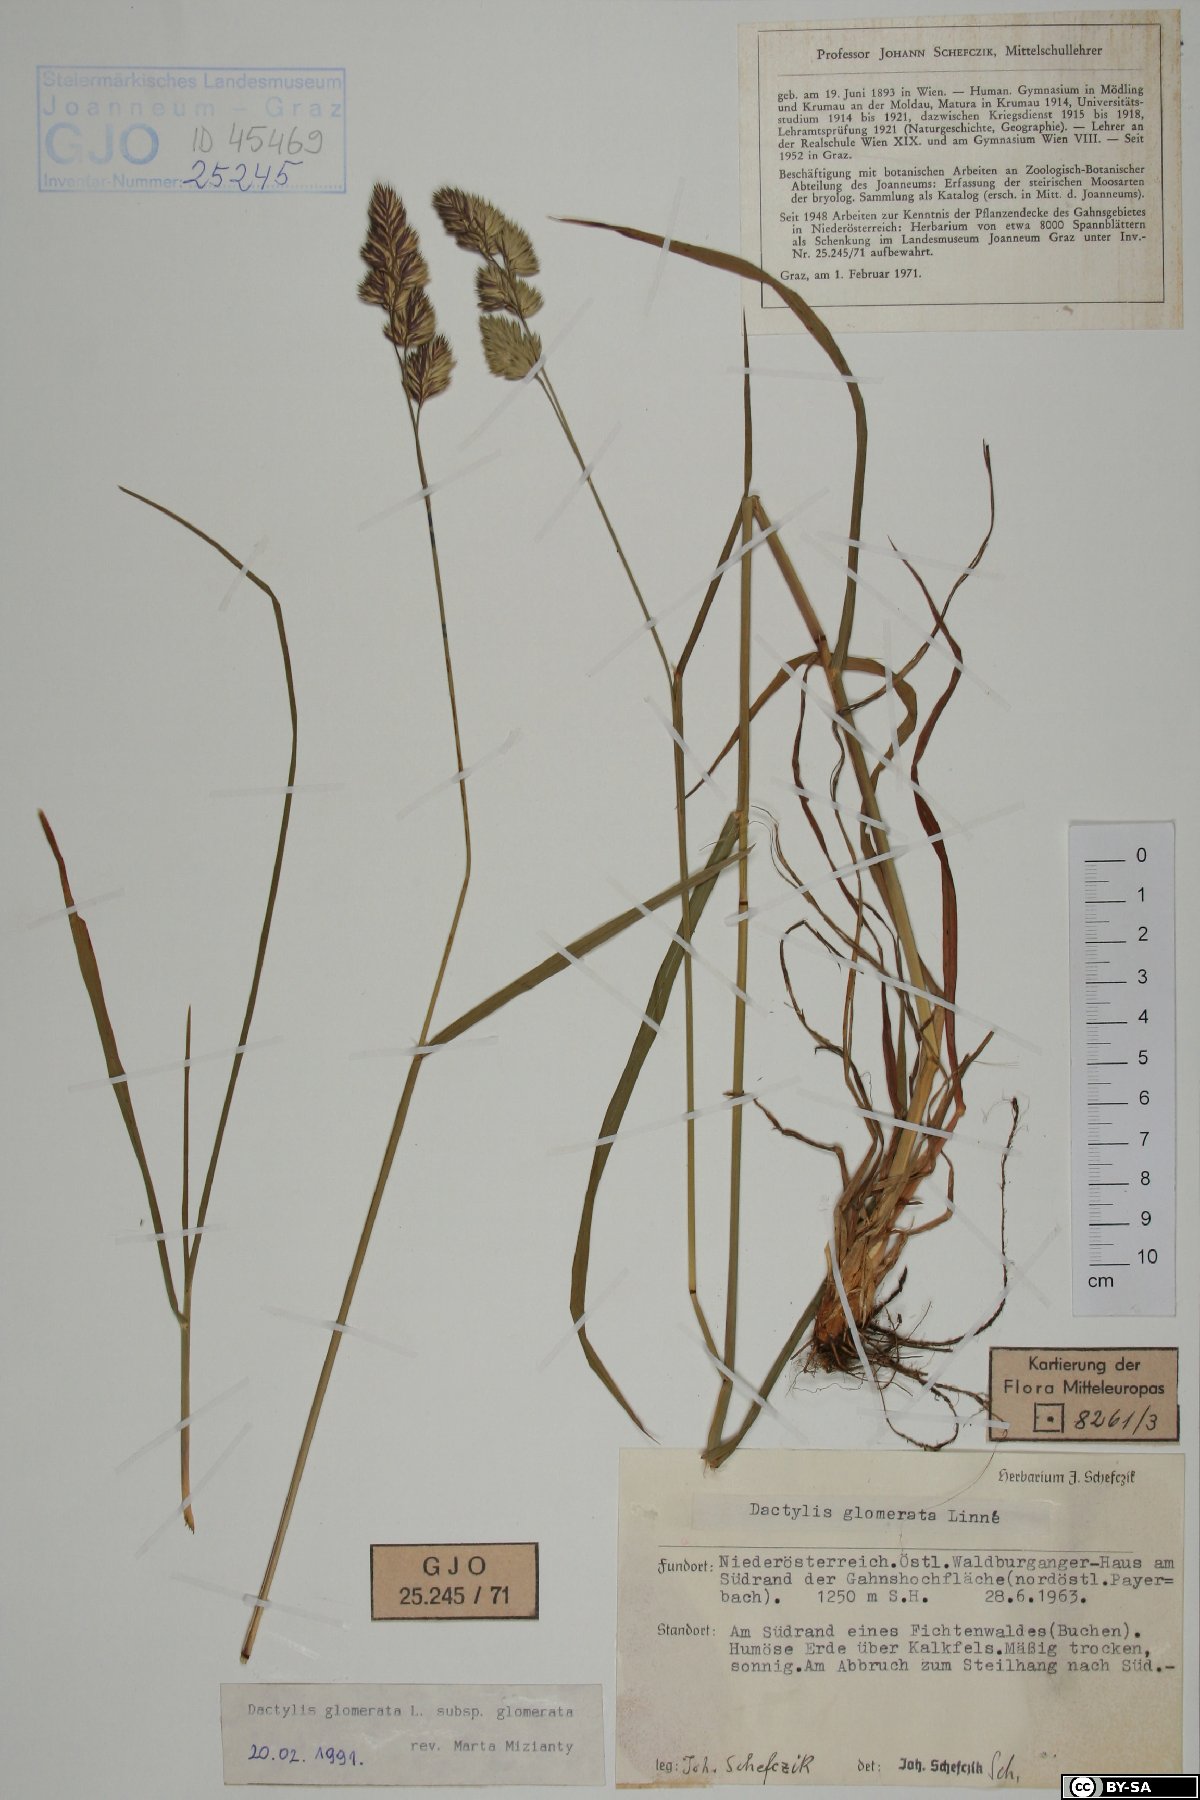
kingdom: Plantae
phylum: Tracheophyta
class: Liliopsida
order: Poales
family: Poaceae
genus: Dactylis
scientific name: Dactylis glomerata
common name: Orchardgrass
